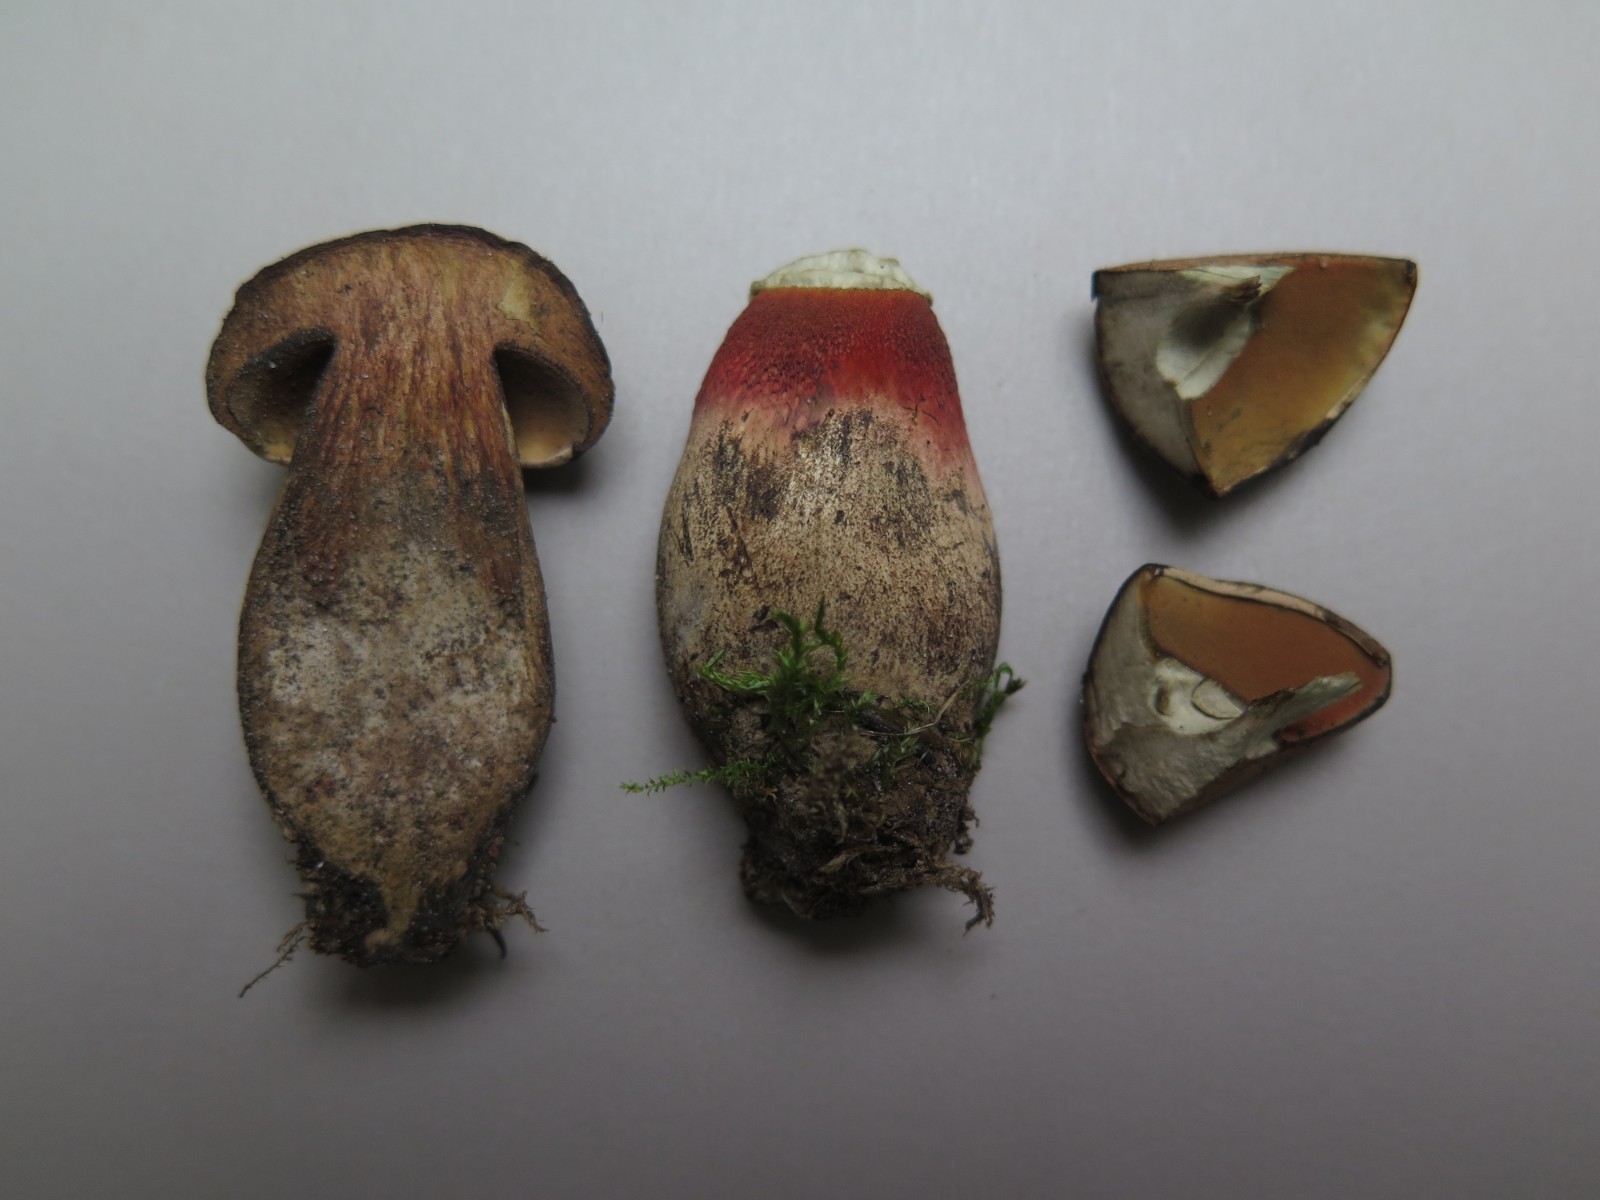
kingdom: Fungi
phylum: Basidiomycota
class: Agaricomycetes
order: Boletales
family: Boletaceae
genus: Suillellus
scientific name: Suillellus luridus
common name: netstokket indigorørhat
